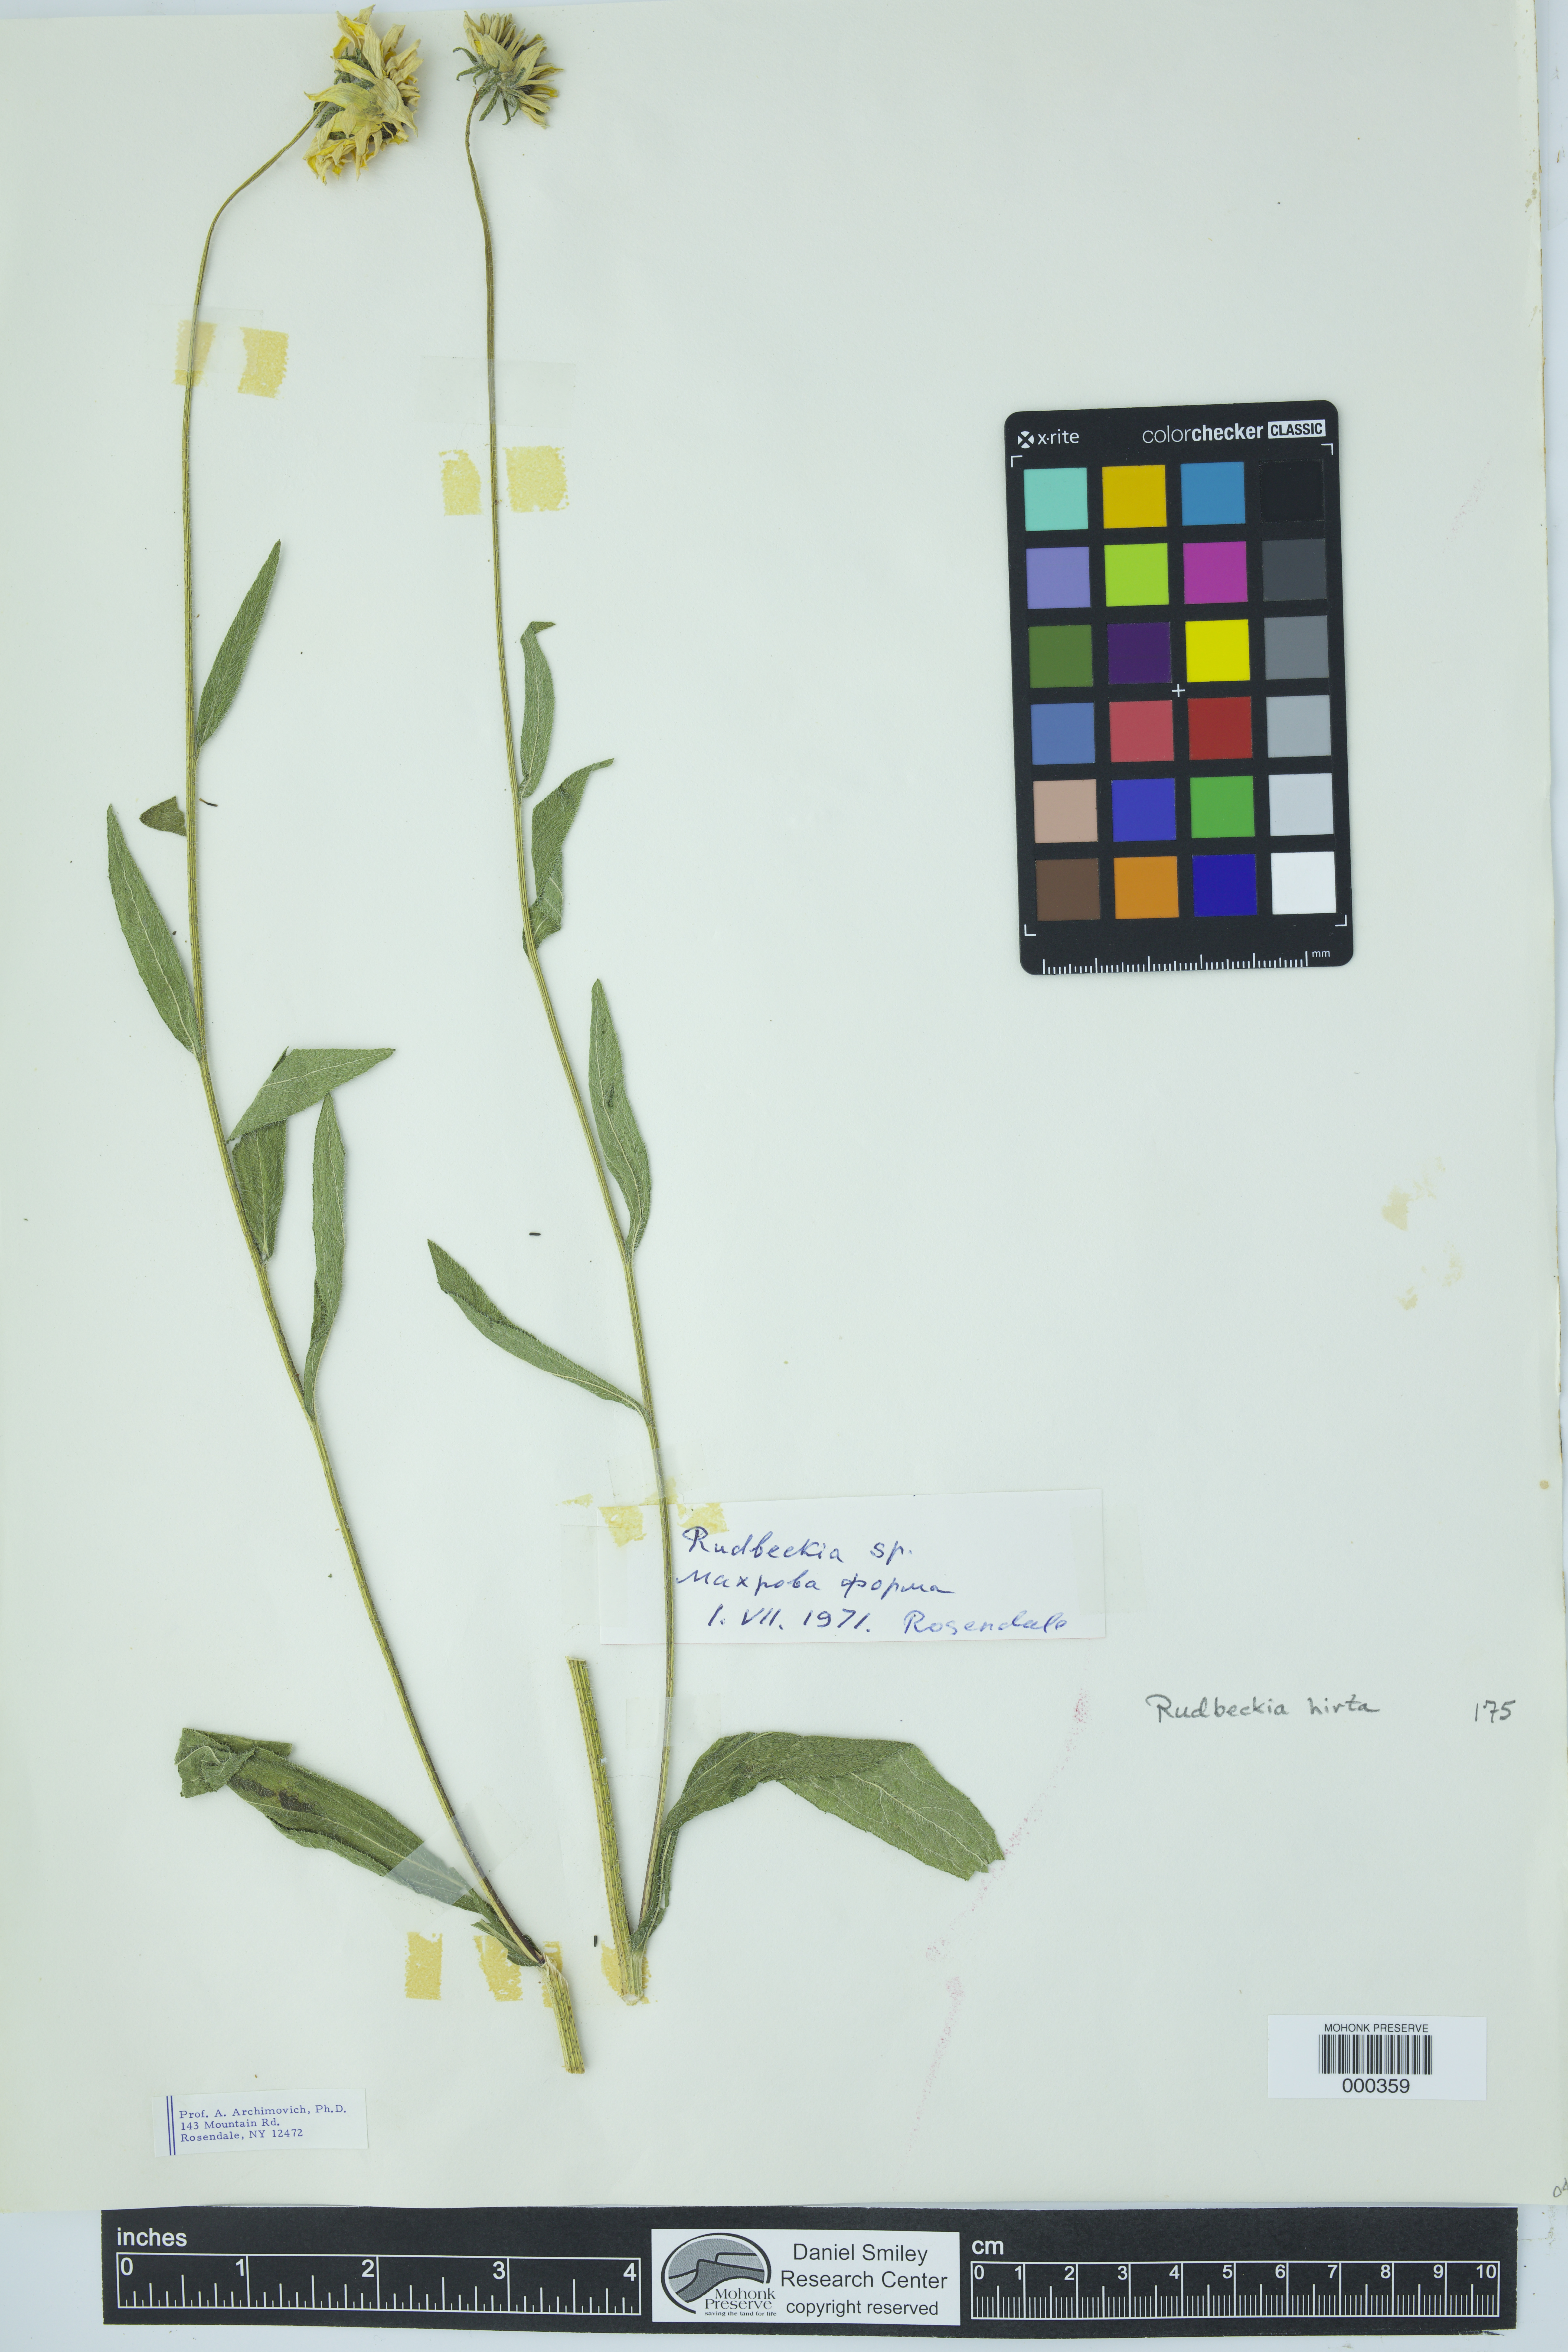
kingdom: Plantae
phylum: Tracheophyta
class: Magnoliopsida
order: Asterales
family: Asteraceae
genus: Rudbeckia
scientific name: Rudbeckia hirta
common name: Black-eyed-susan
